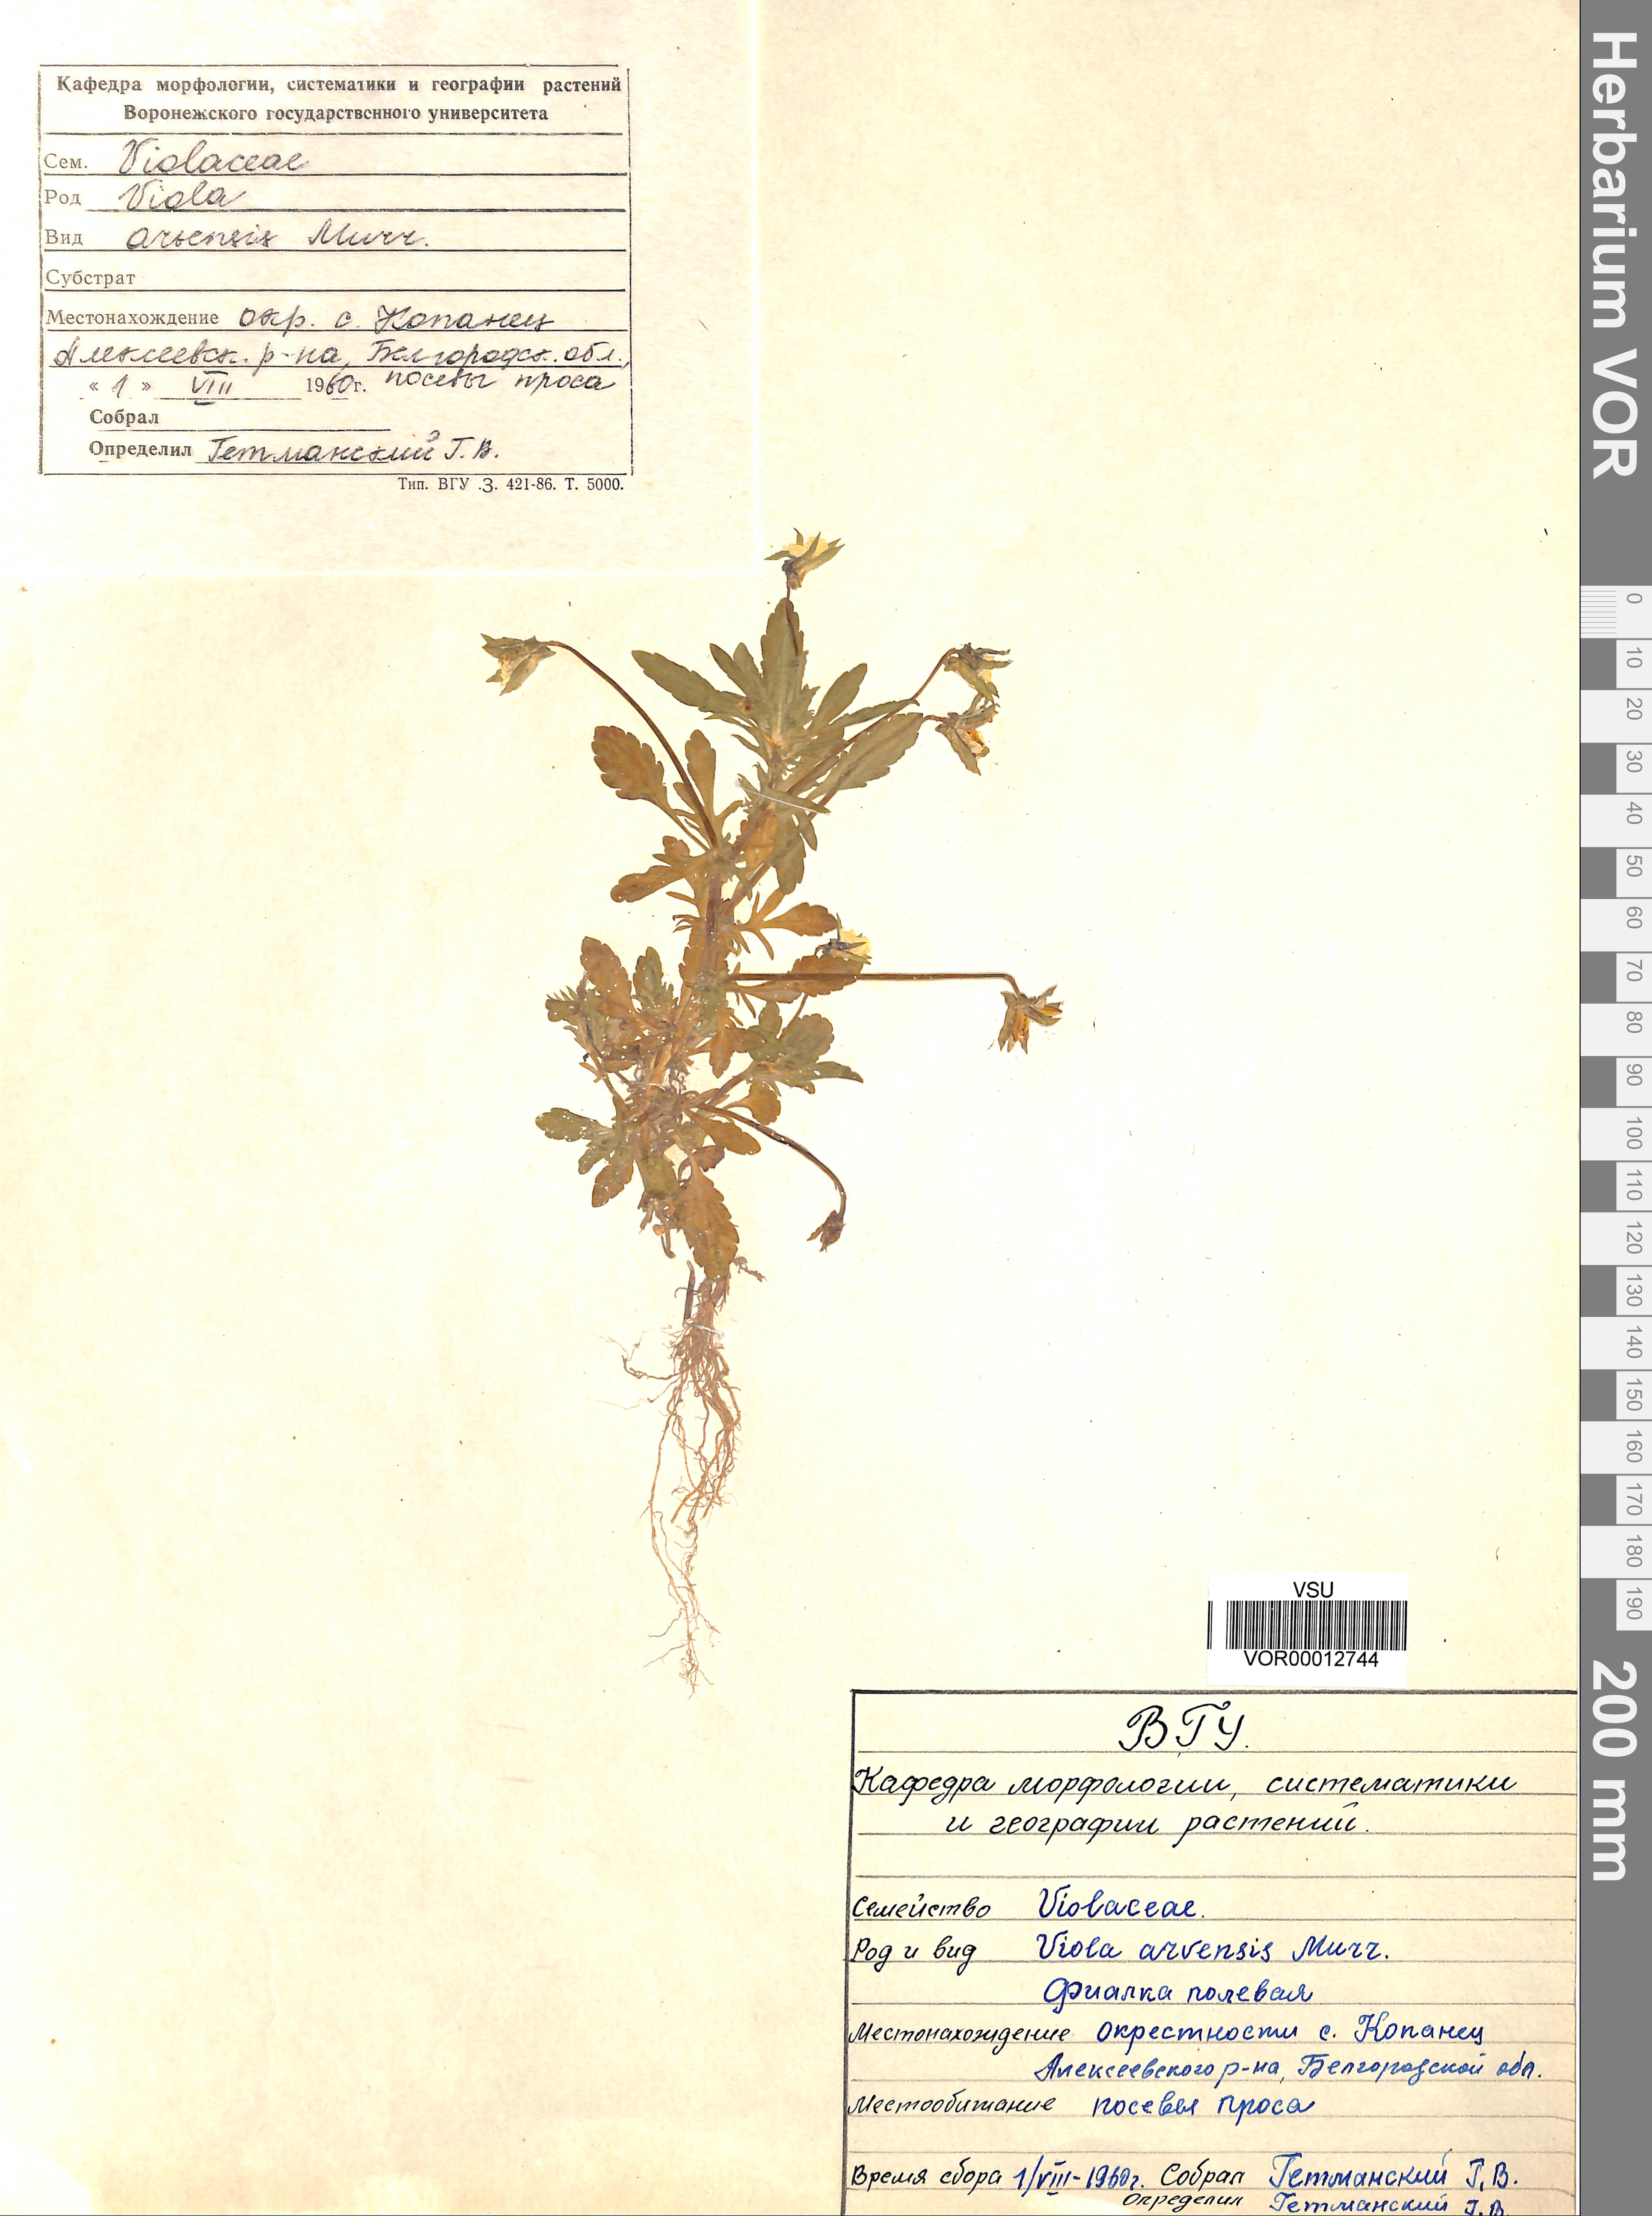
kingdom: Plantae
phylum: Tracheophyta
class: Magnoliopsida
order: Malpighiales
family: Violaceae
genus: Viola
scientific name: Viola arvensis
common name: Field pansy
